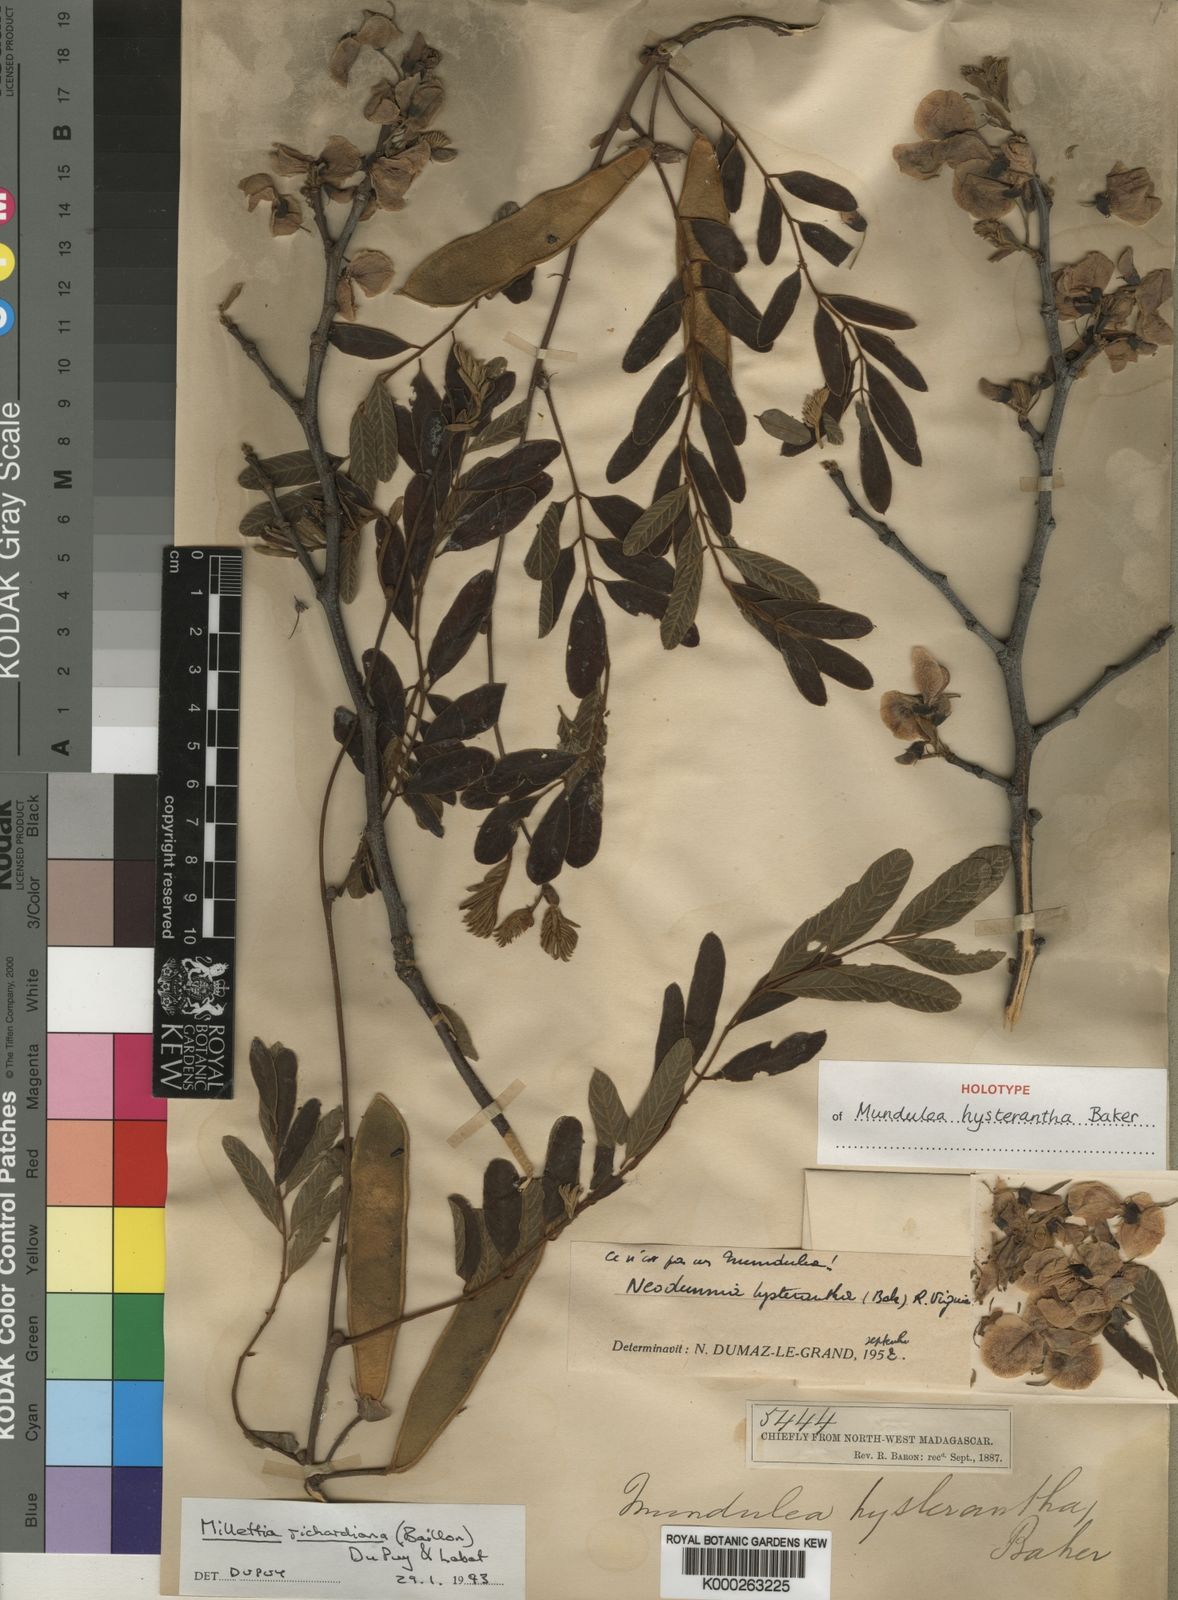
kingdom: Plantae
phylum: Tracheophyta
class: Magnoliopsida
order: Fabales
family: Fabaceae
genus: Millettia
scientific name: Millettia richardiana
